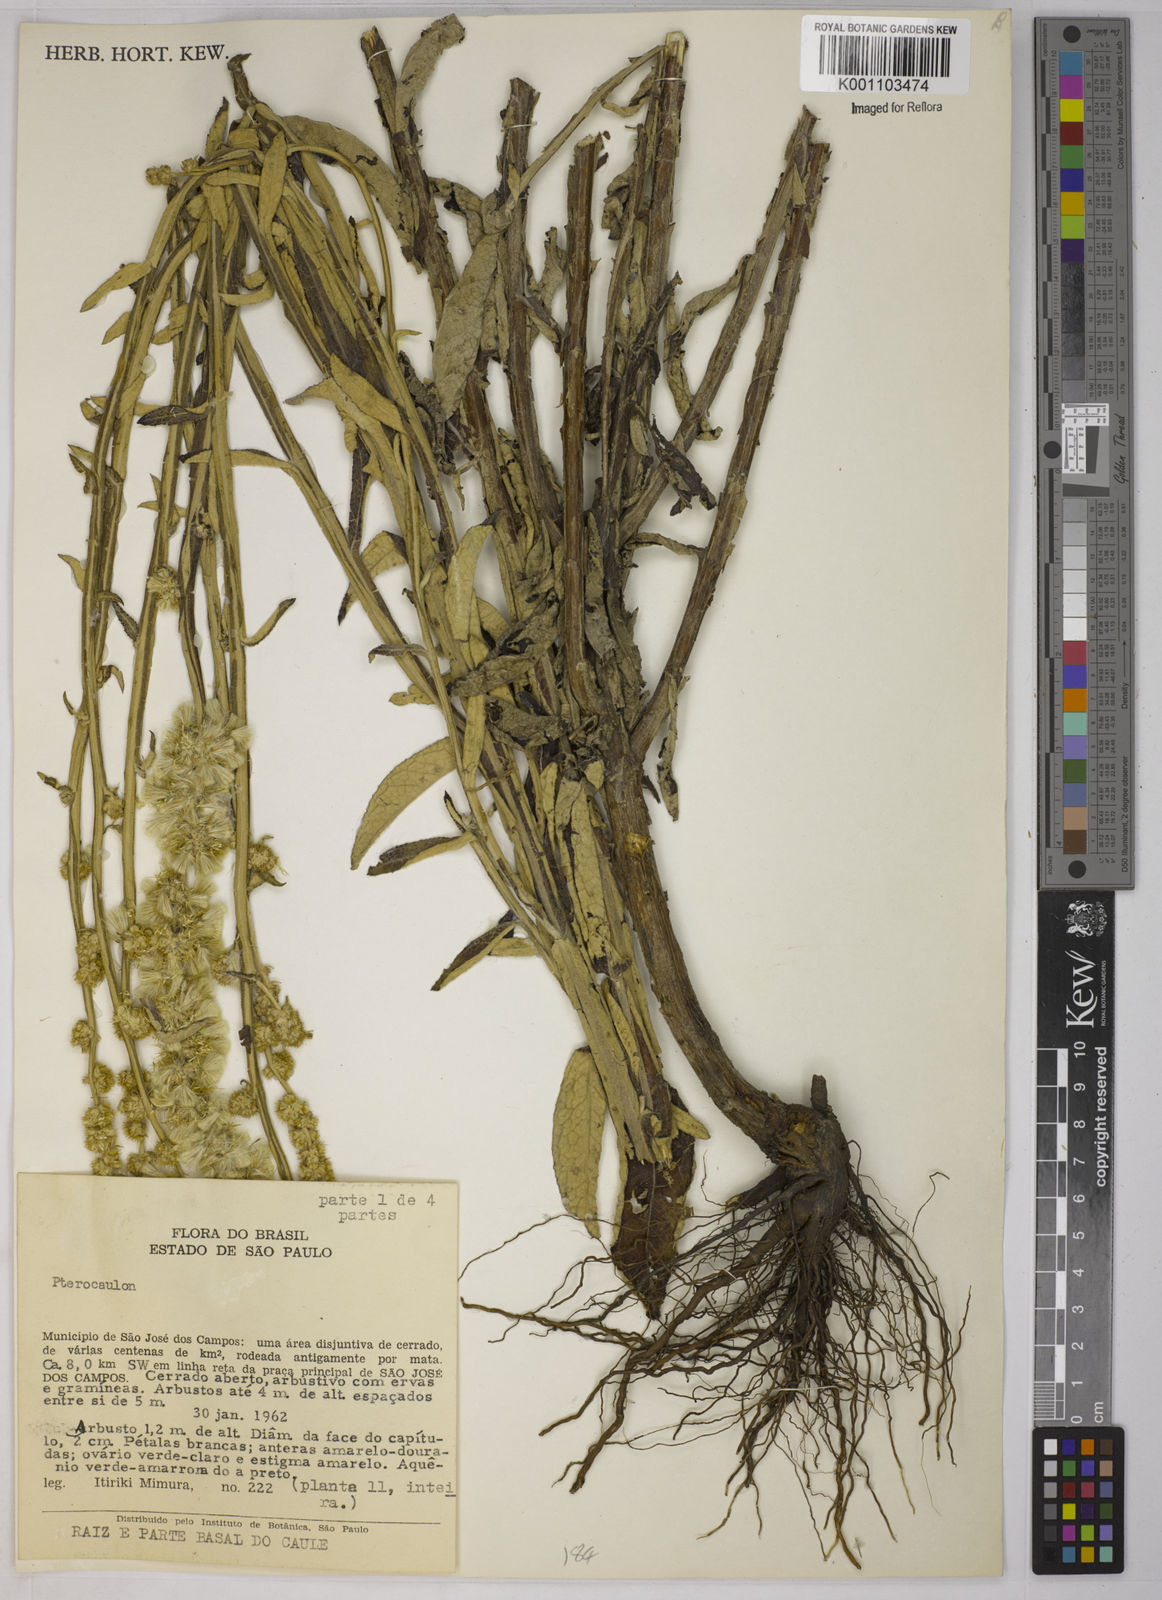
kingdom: Plantae
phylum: Tracheophyta
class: Magnoliopsida
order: Asterales
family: Asteraceae
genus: Pterocaulon
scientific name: Pterocaulon virgatum
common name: Wand blackroot
